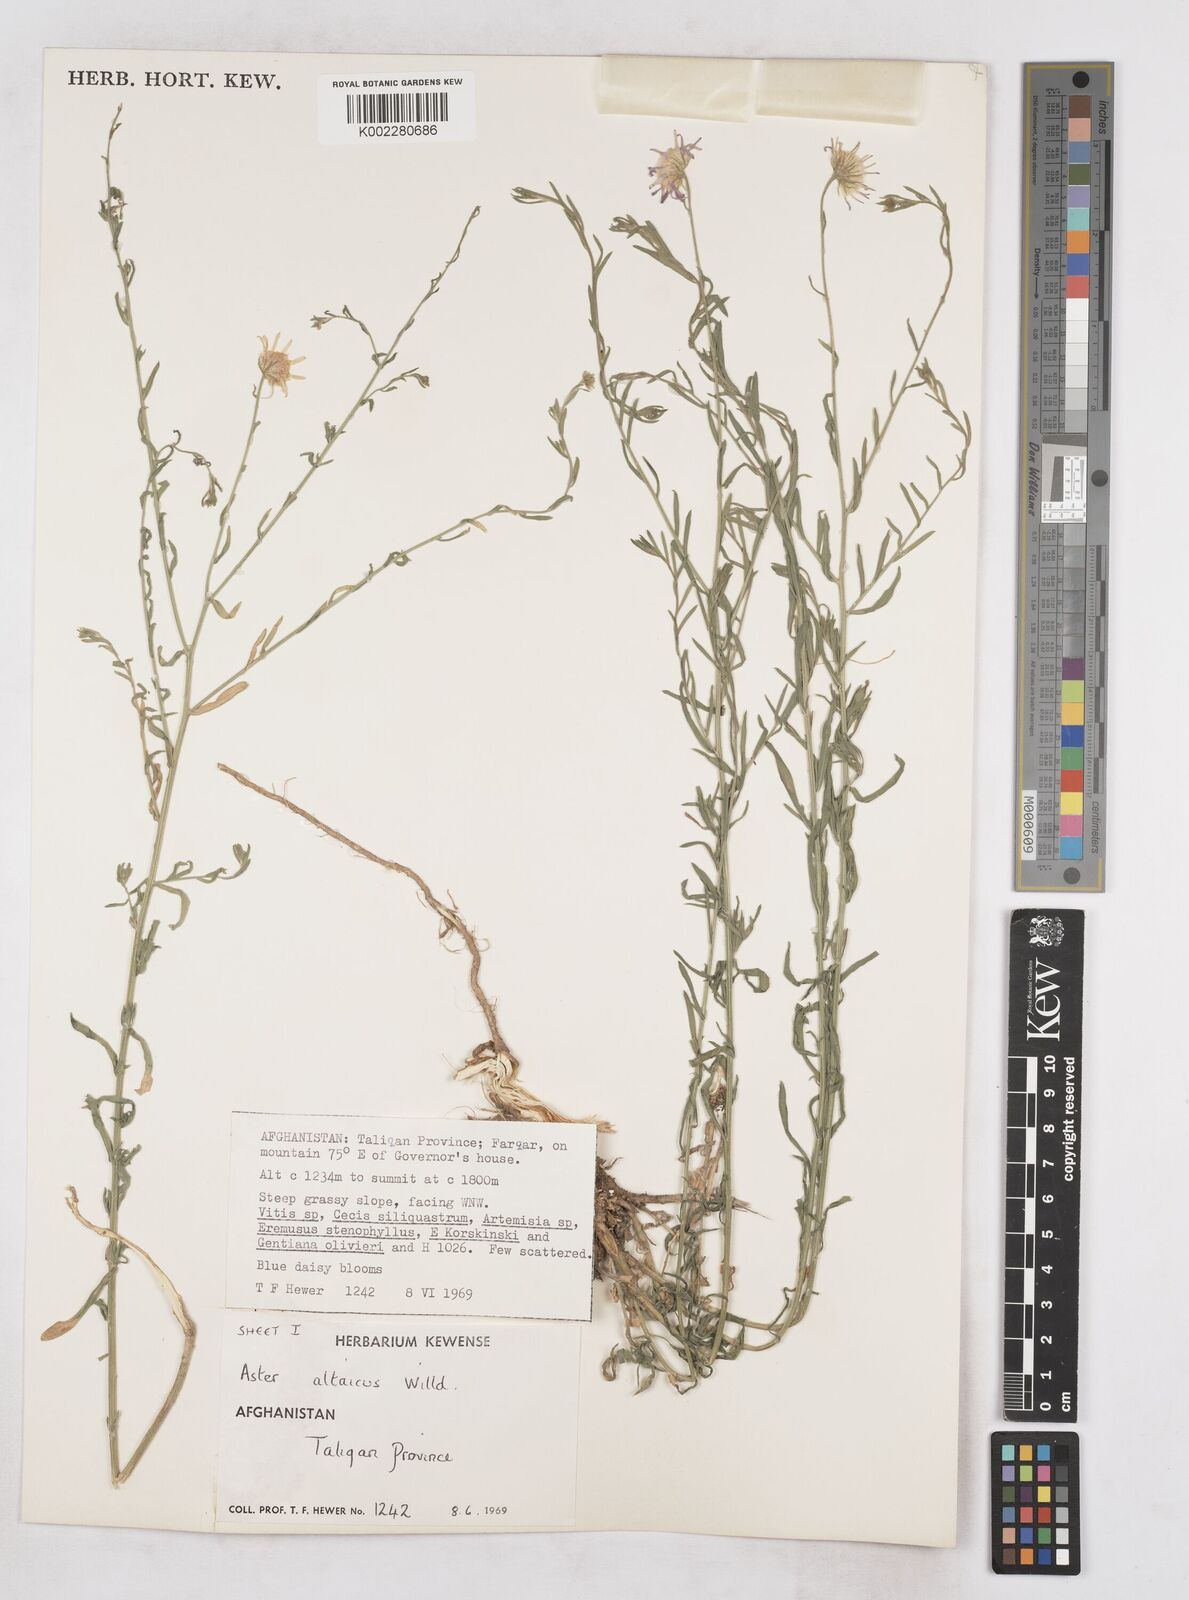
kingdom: Plantae
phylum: Tracheophyta
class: Magnoliopsida
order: Asterales
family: Asteraceae
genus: Heteropappus
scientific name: Heteropappus altaicus
